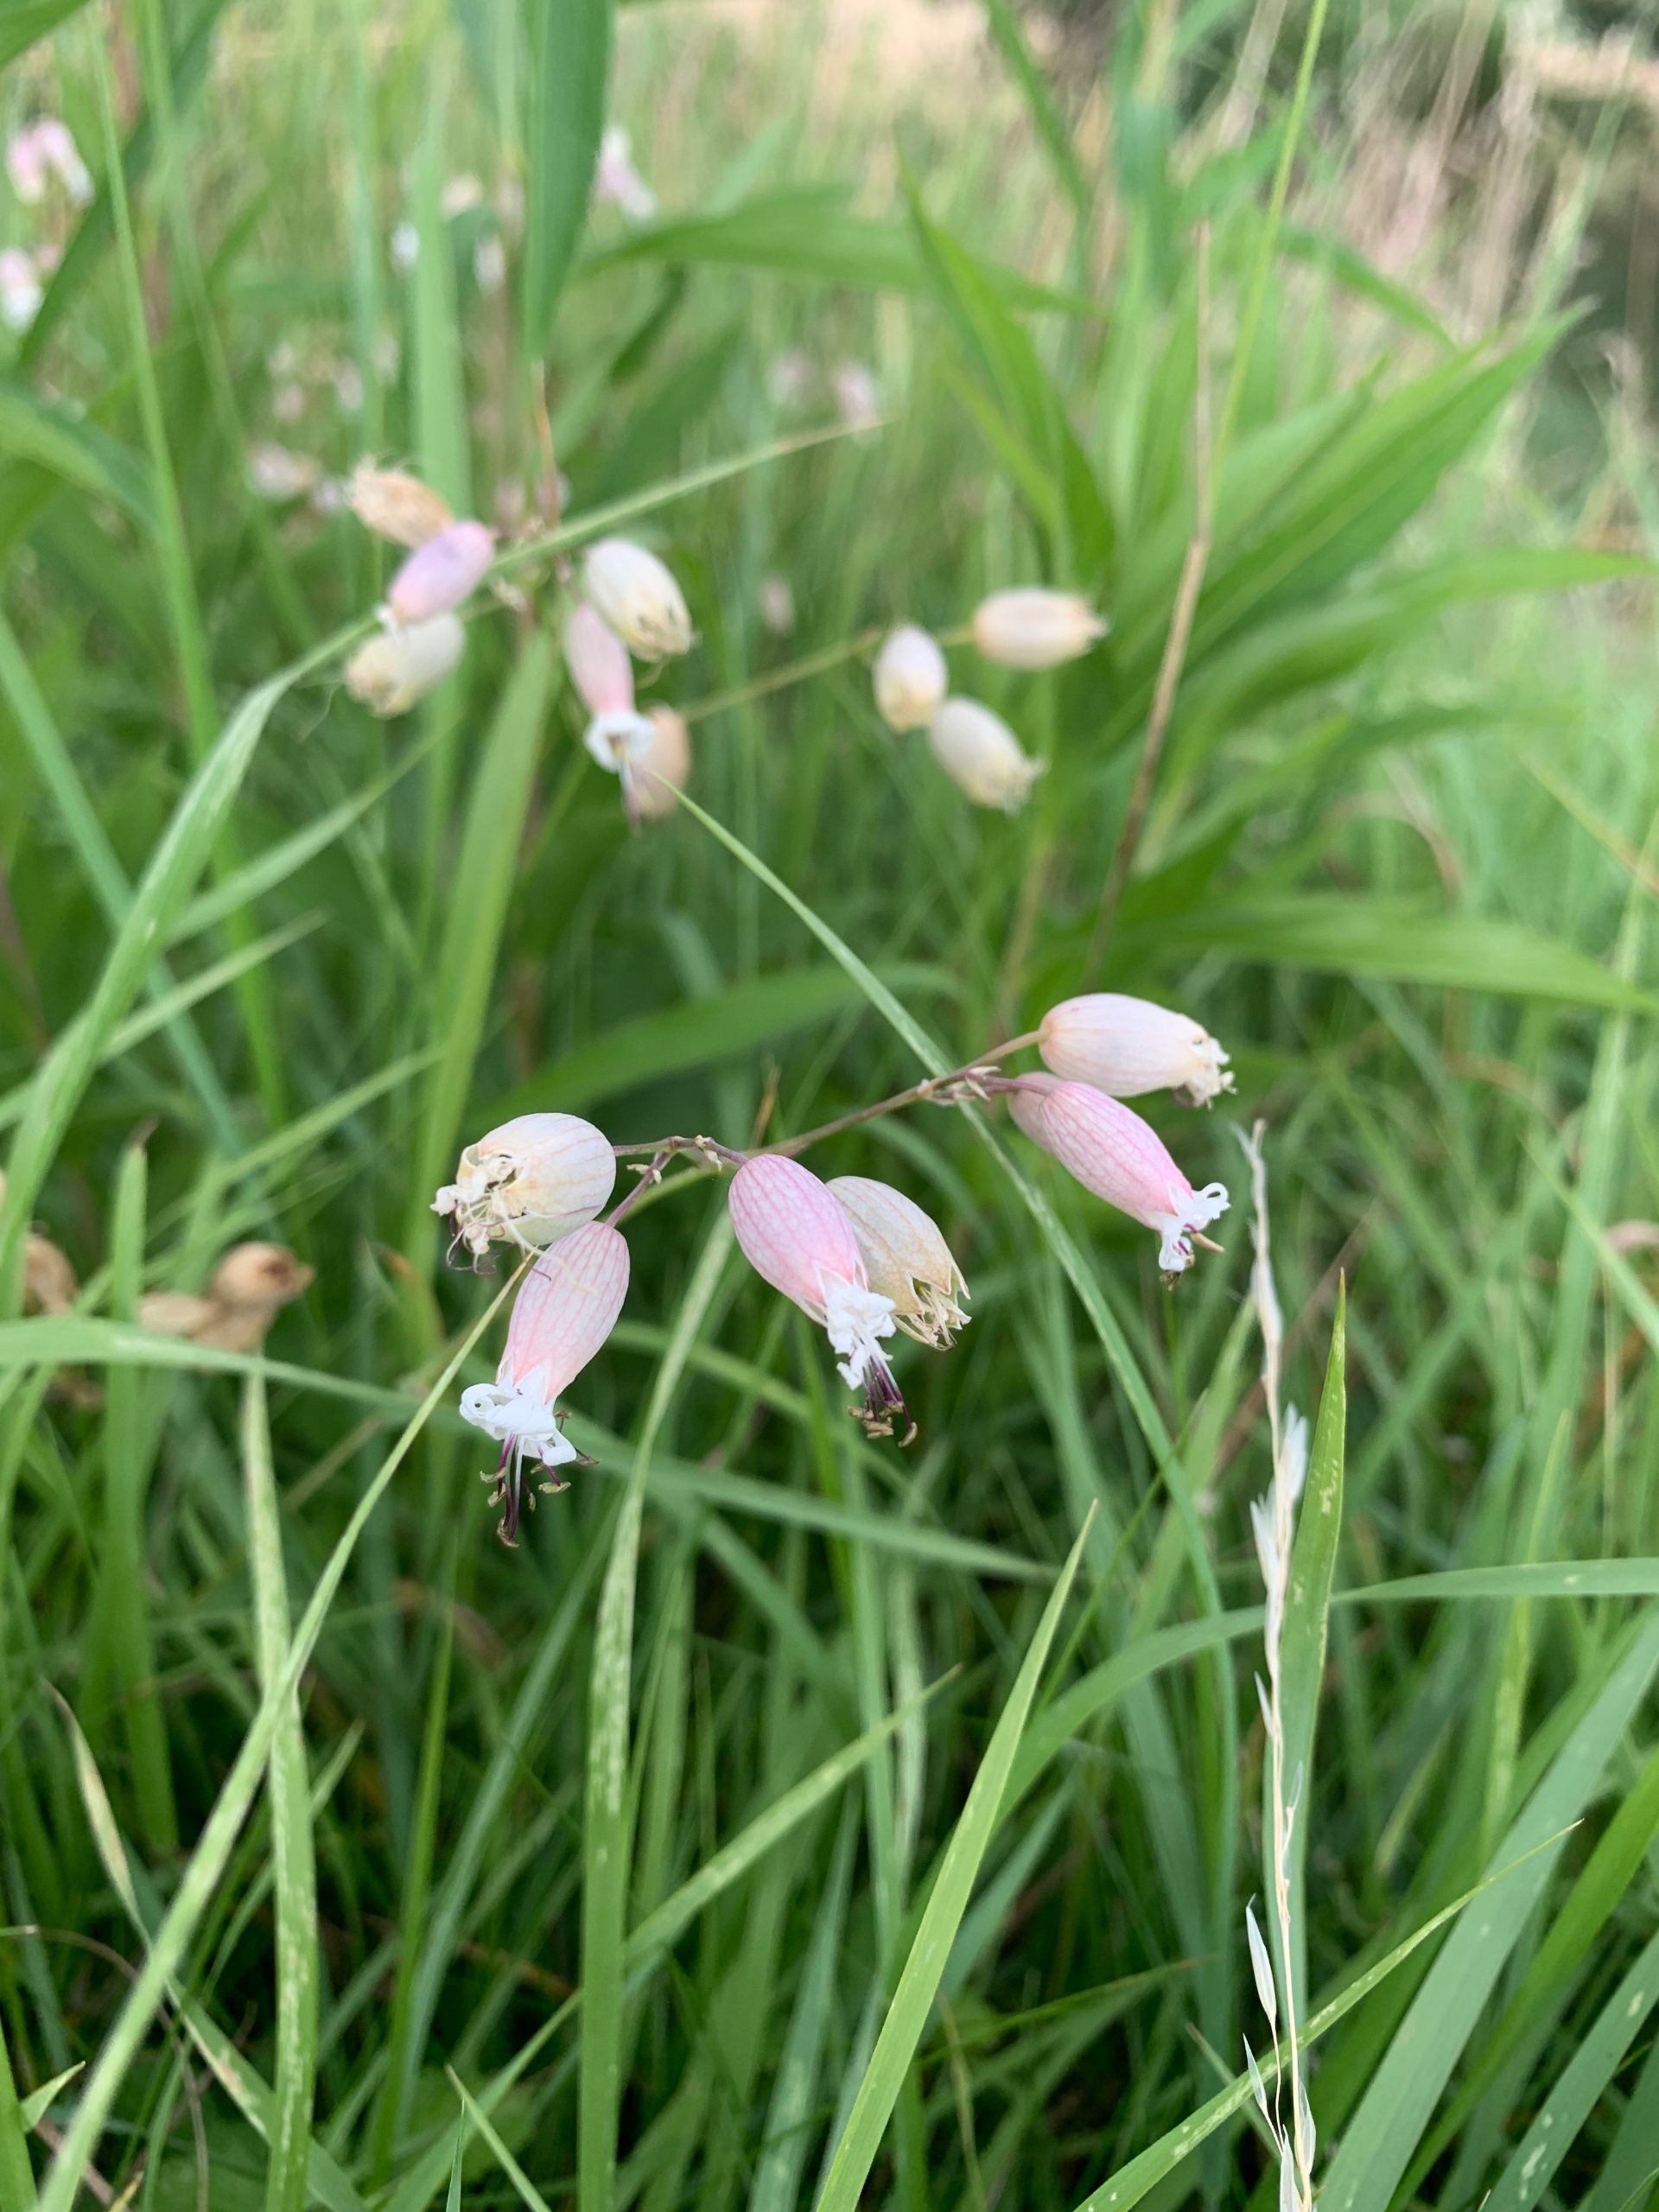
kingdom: Plantae
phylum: Tracheophyta
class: Magnoliopsida
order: Caryophyllales
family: Caryophyllaceae
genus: Silene
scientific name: Silene vulgaris
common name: Blæresmælde
